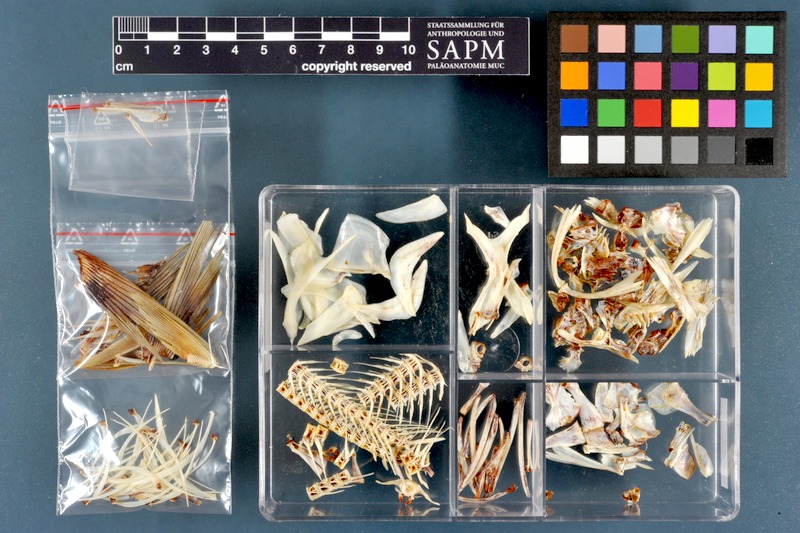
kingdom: Animalia
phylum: Chordata
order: Cypriniformes
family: Cyprinidae
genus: Leuciscus
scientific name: Leuciscus vorax
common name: Mesopotamian asp
